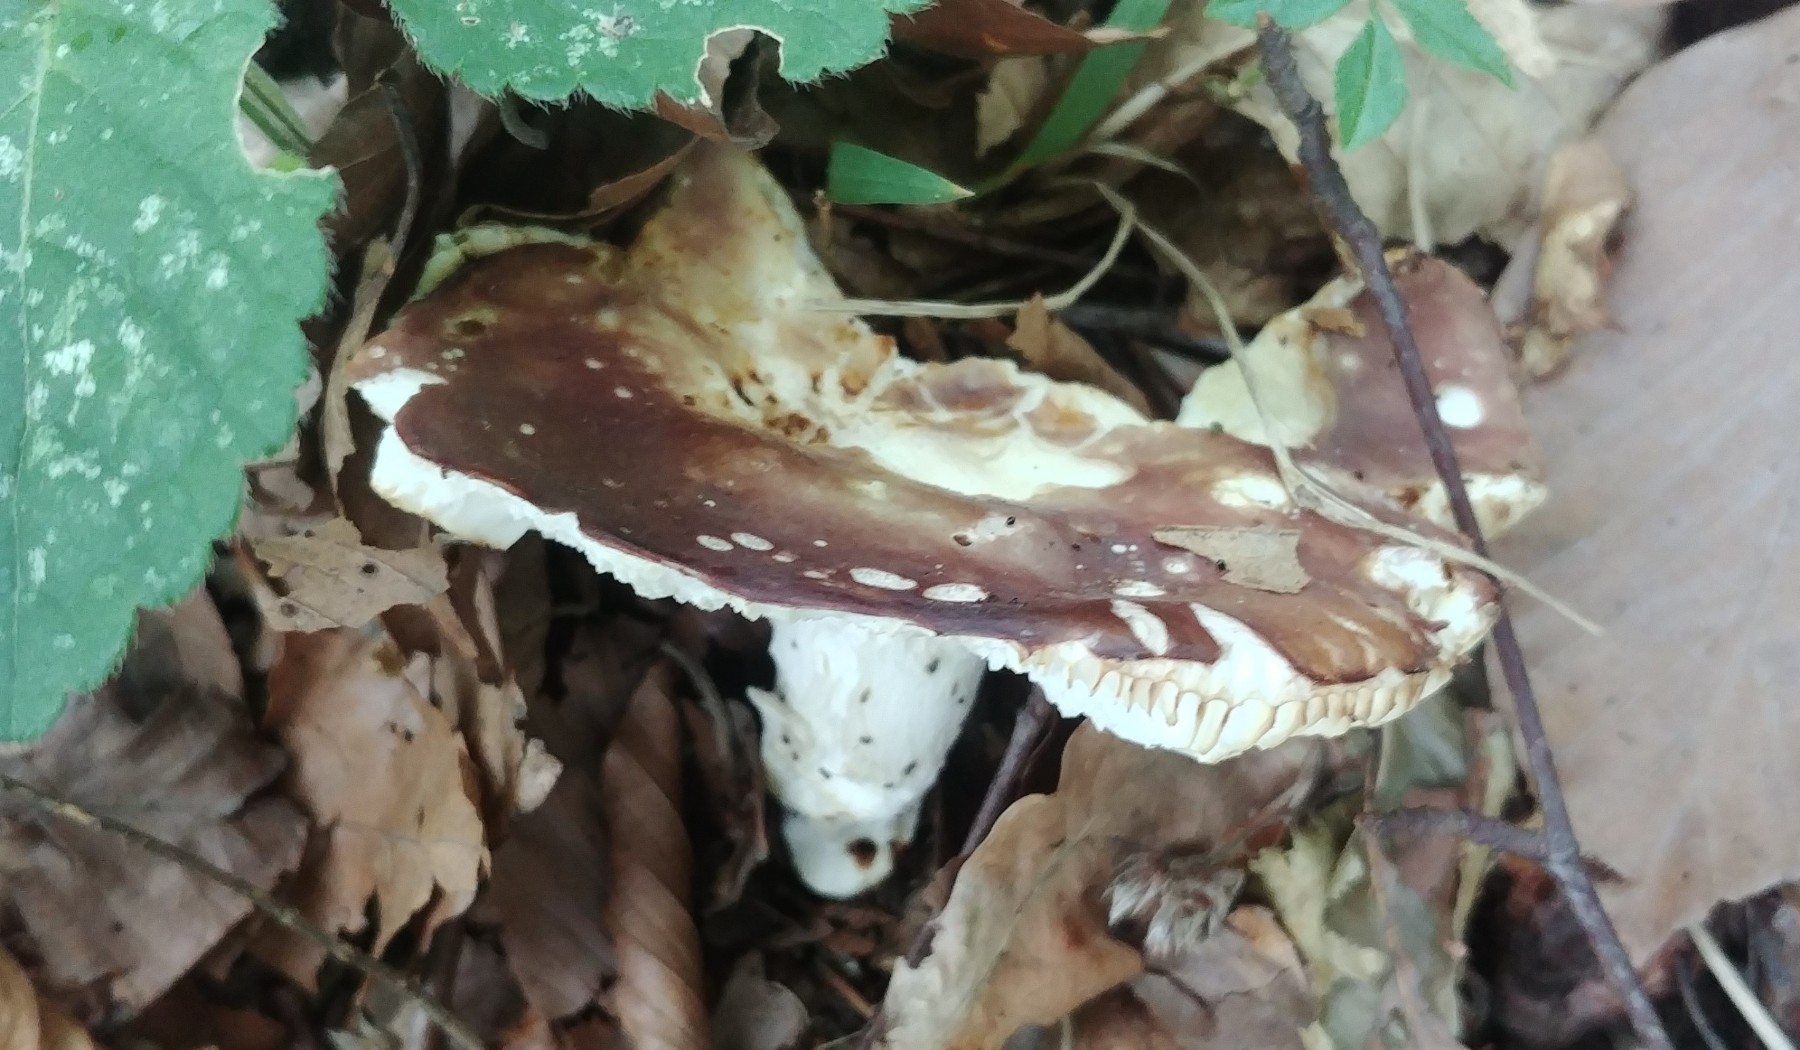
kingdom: Fungi
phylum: Basidiomycota
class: Agaricomycetes
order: Russulales
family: Russulaceae
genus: Russula
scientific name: Russula vesca
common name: spiselig skørhat
